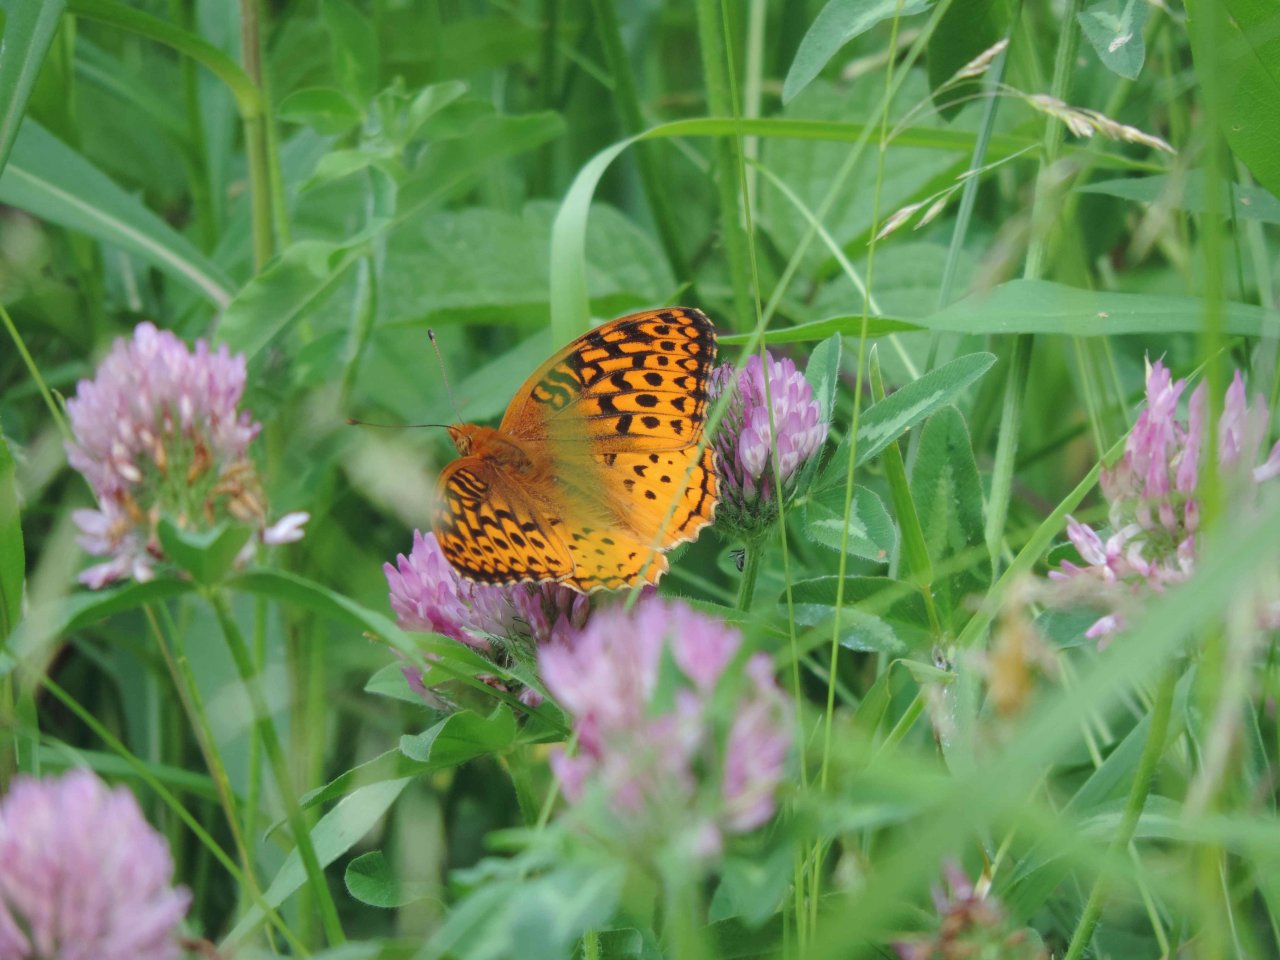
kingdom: Animalia
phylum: Arthropoda
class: Insecta
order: Lepidoptera
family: Nymphalidae
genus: Speyeria
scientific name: Speyeria cybele
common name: Great Spangled Fritillary
